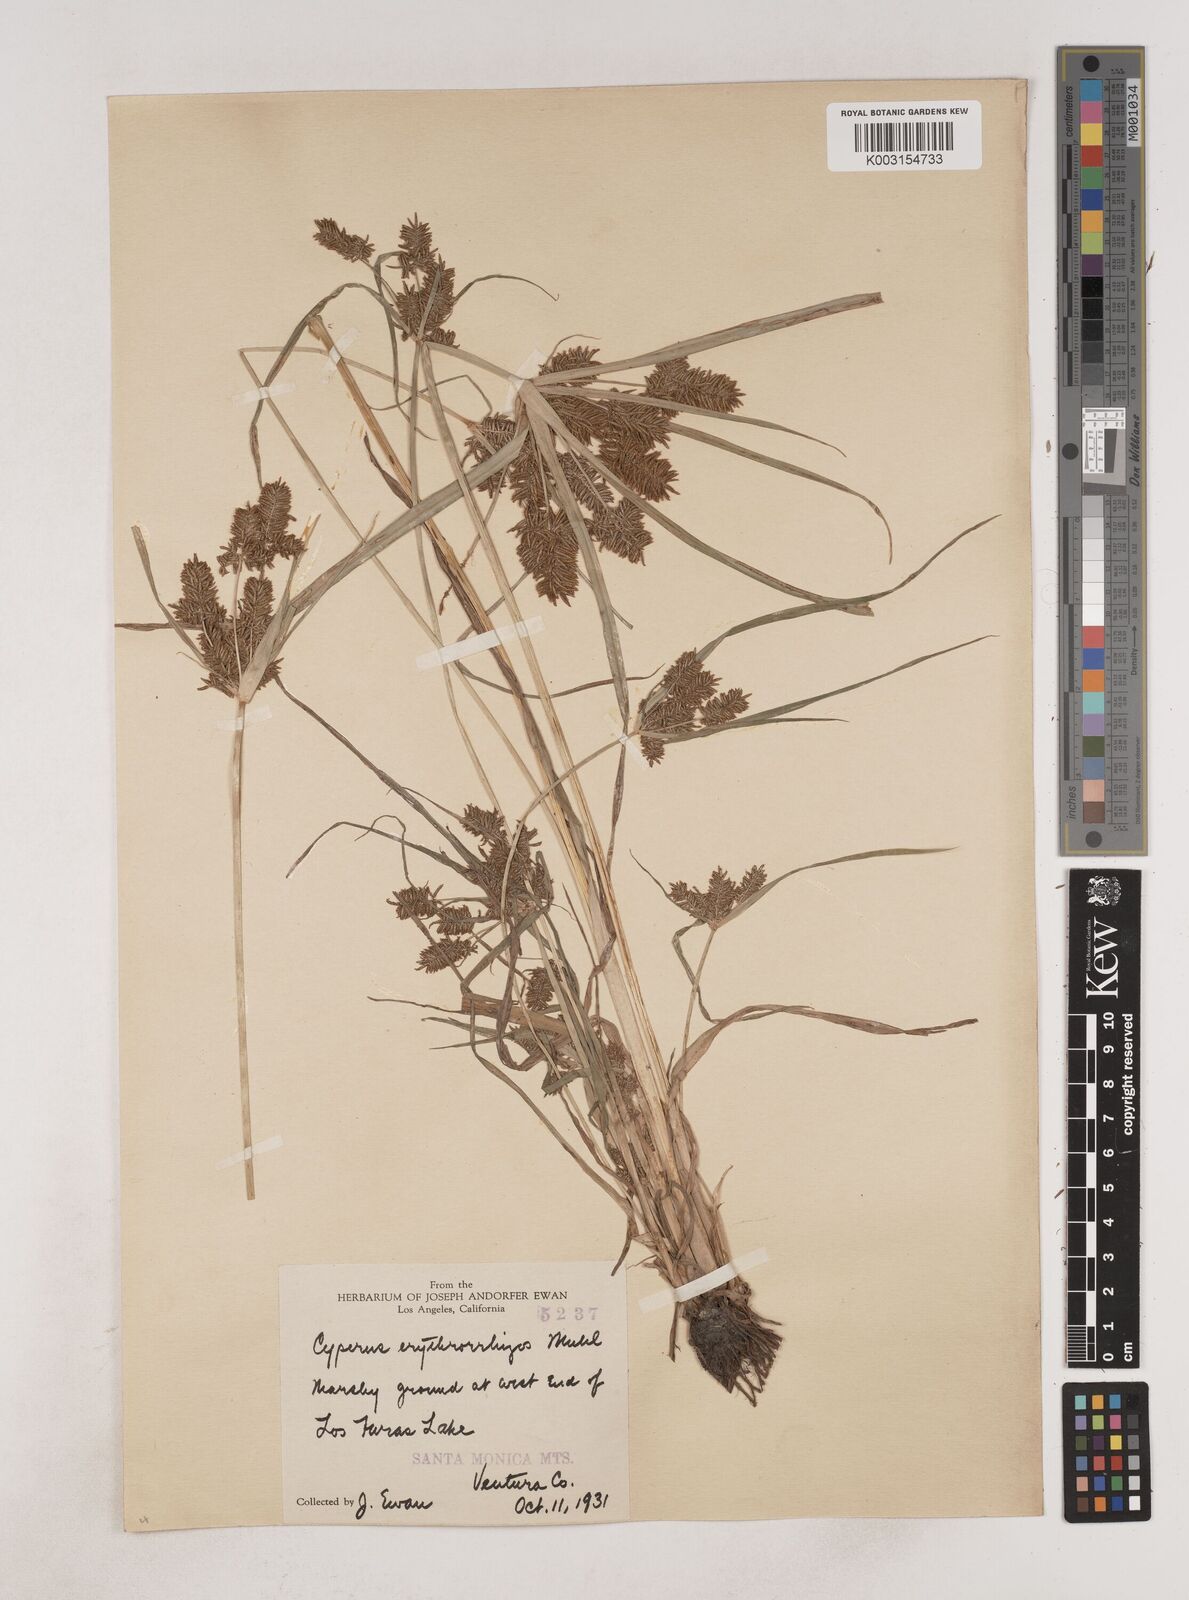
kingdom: Plantae
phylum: Tracheophyta
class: Liliopsida
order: Poales
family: Cyperaceae
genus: Cyperus
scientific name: Cyperus erythrorhizos
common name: Red-root flat sedge
